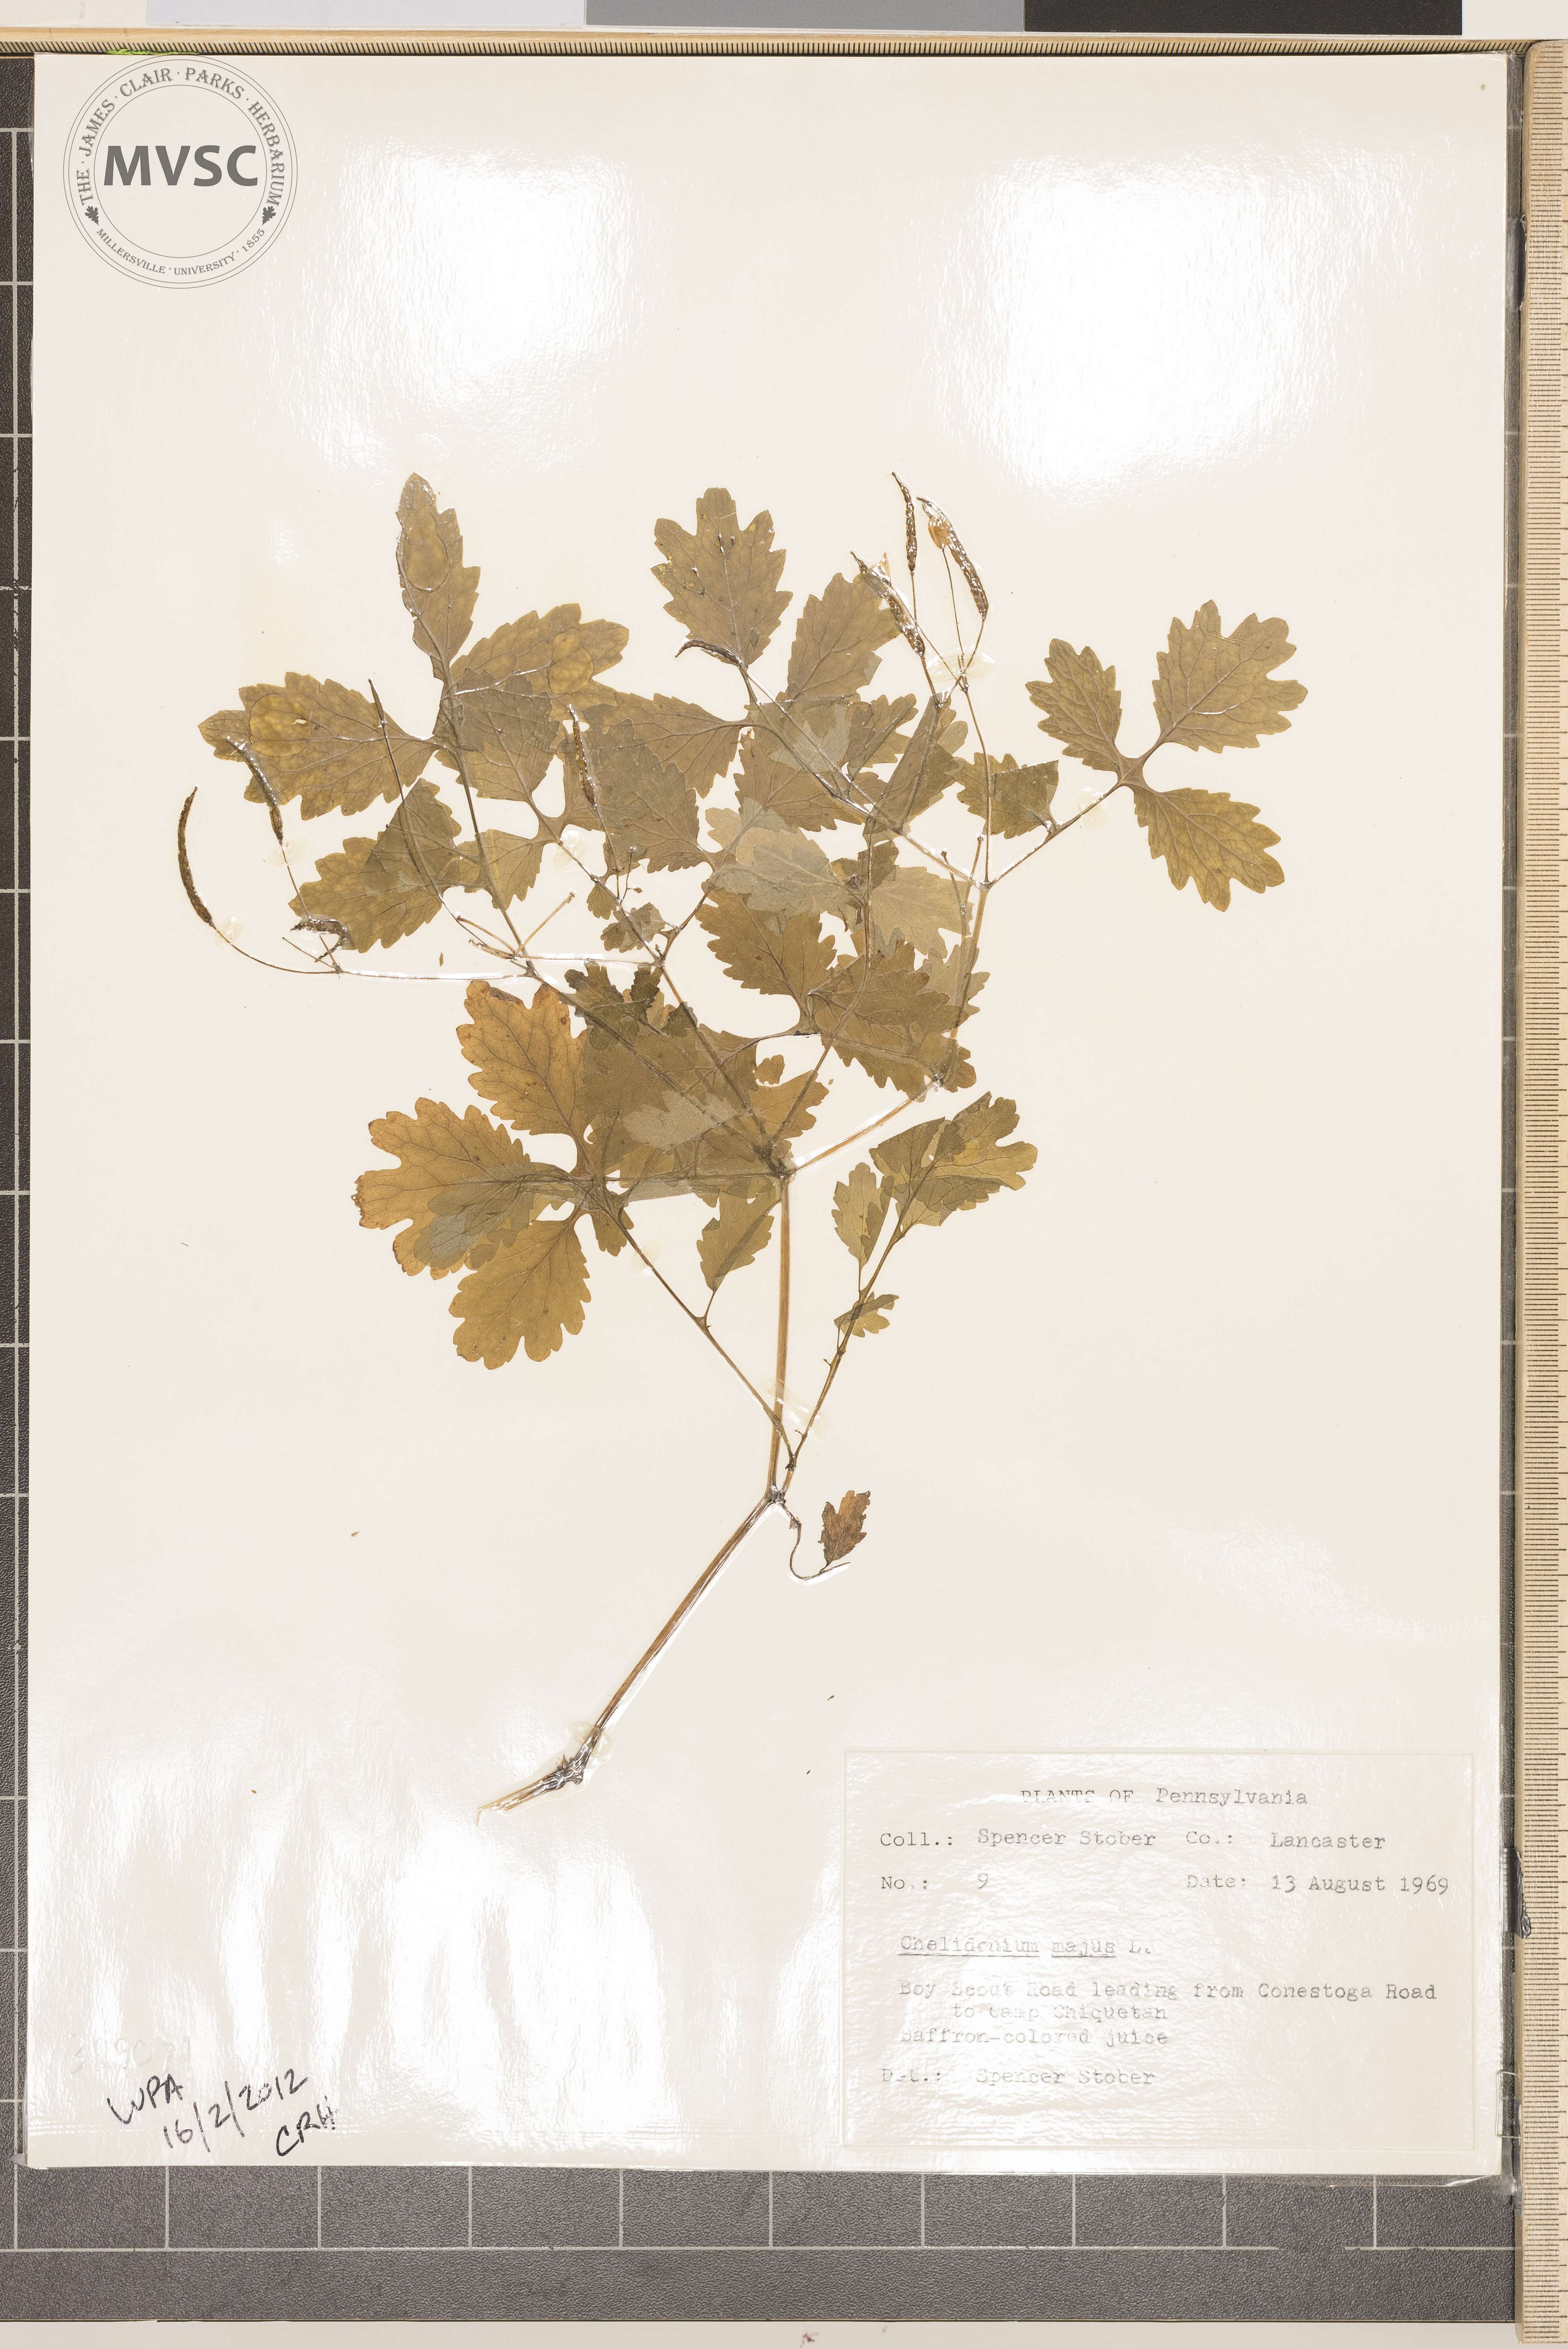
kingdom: Plantae
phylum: Tracheophyta
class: Magnoliopsida
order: Ranunculales
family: Papaveraceae
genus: Chelidonium
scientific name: Chelidonium majus
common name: Greater celandine
